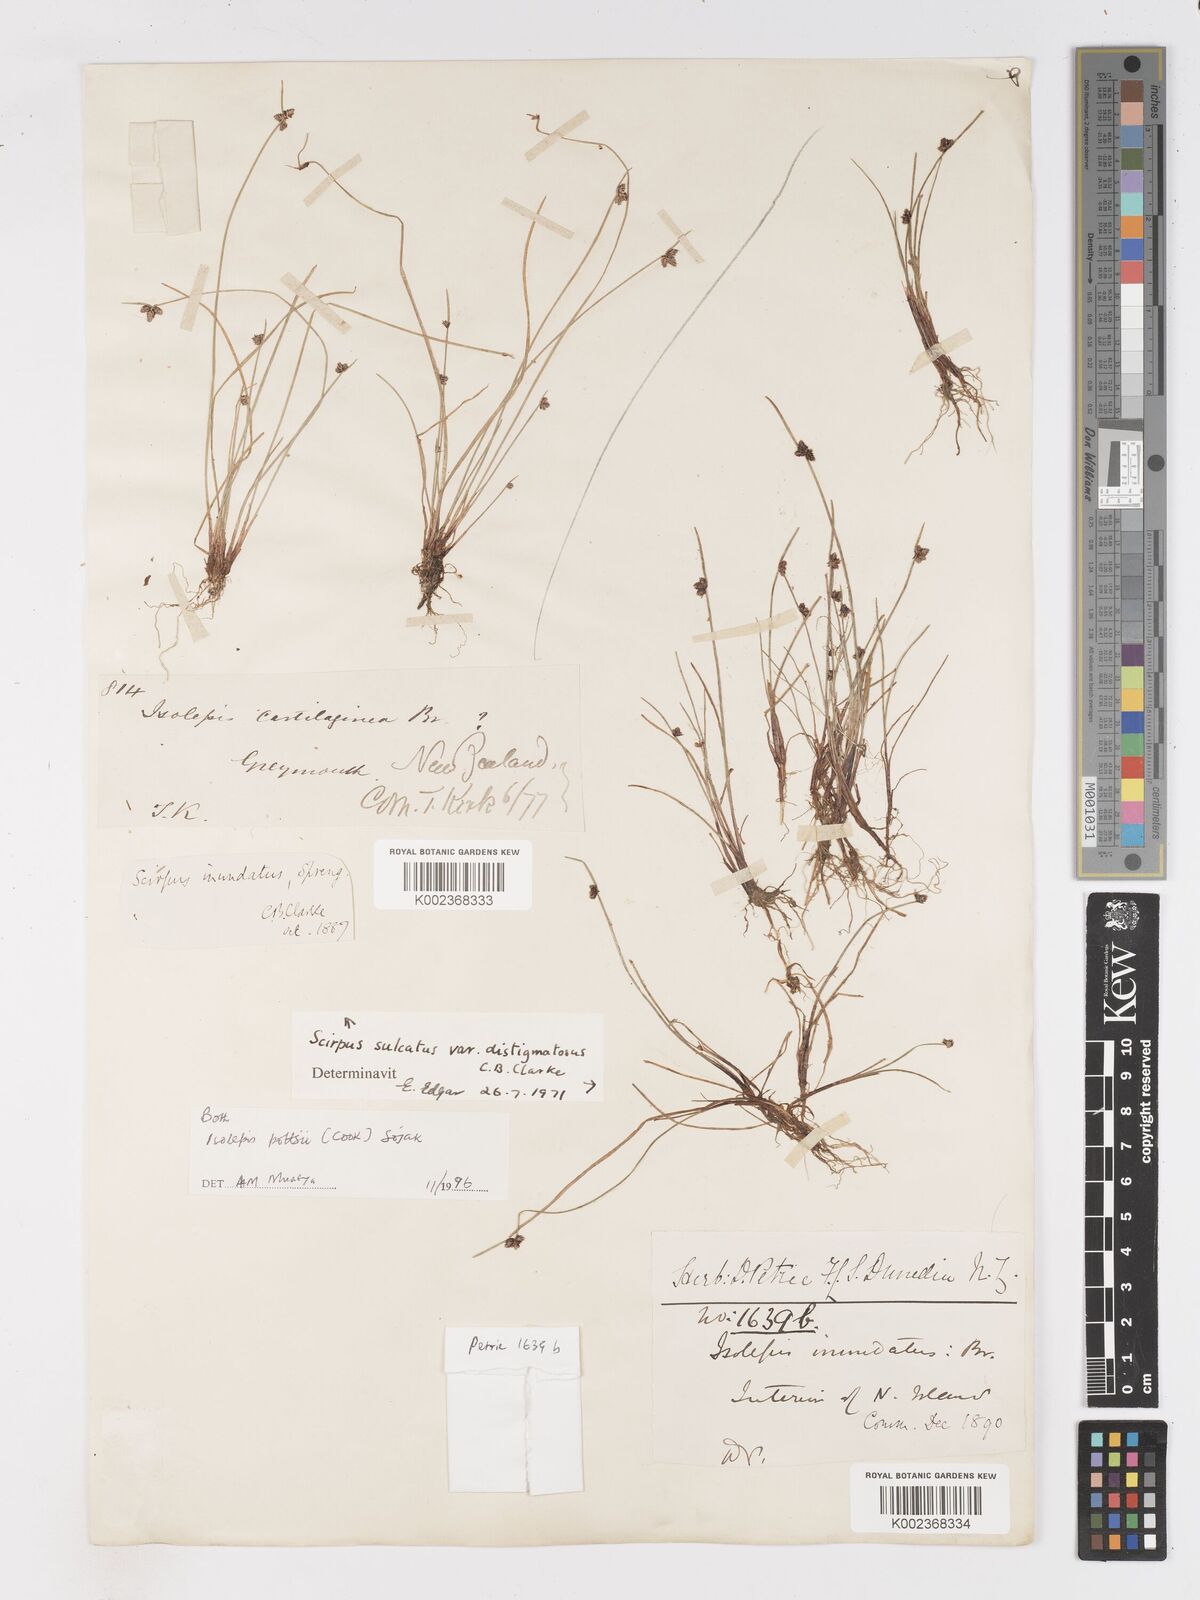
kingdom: Plantae
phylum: Tracheophyta
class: Liliopsida
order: Poales
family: Cyperaceae
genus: Isolepis
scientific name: Isolepis pottsii
